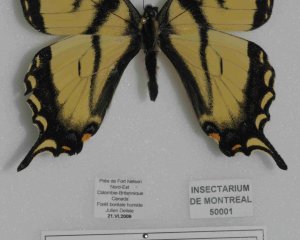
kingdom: Animalia
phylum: Arthropoda
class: Insecta
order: Lepidoptera
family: Papilionidae
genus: Pterourus
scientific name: Pterourus canadensis
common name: Canadian Tiger Swallowtail
